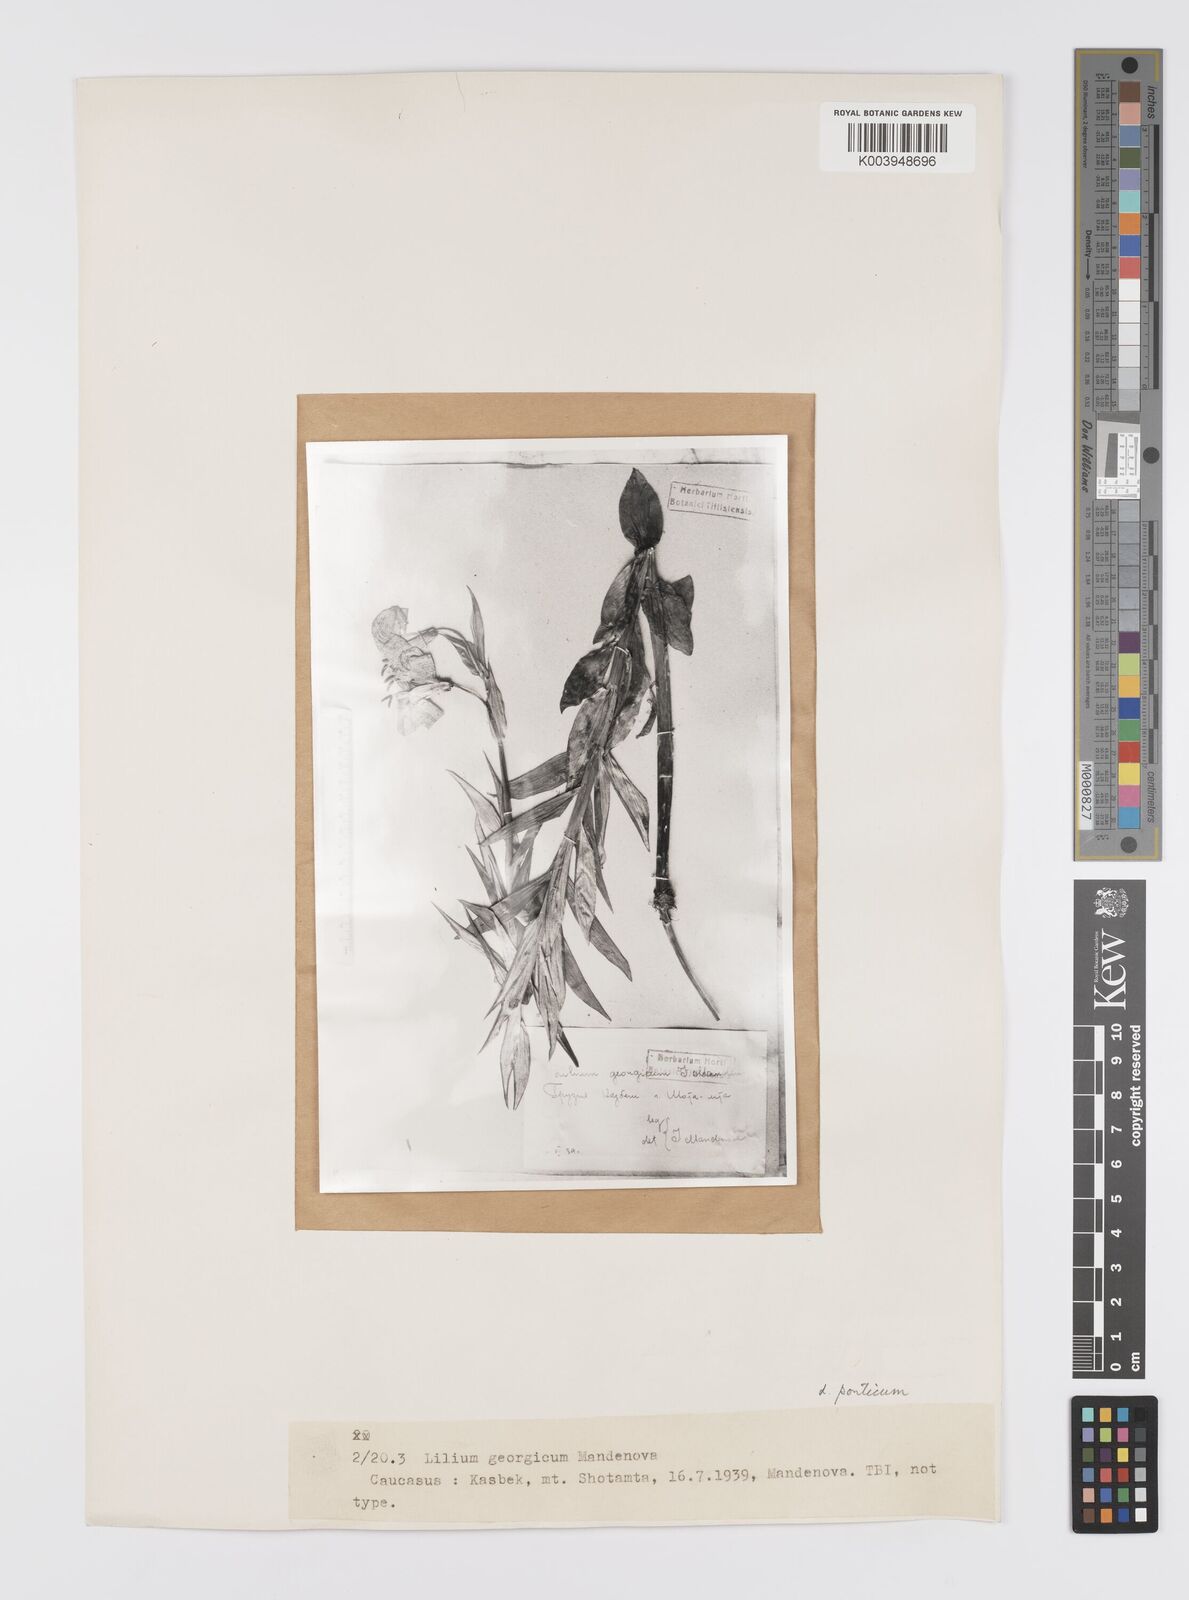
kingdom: Plantae
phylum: Tracheophyta
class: Liliopsida
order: Liliales
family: Liliaceae
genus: Lilium
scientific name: Lilium ponticum
